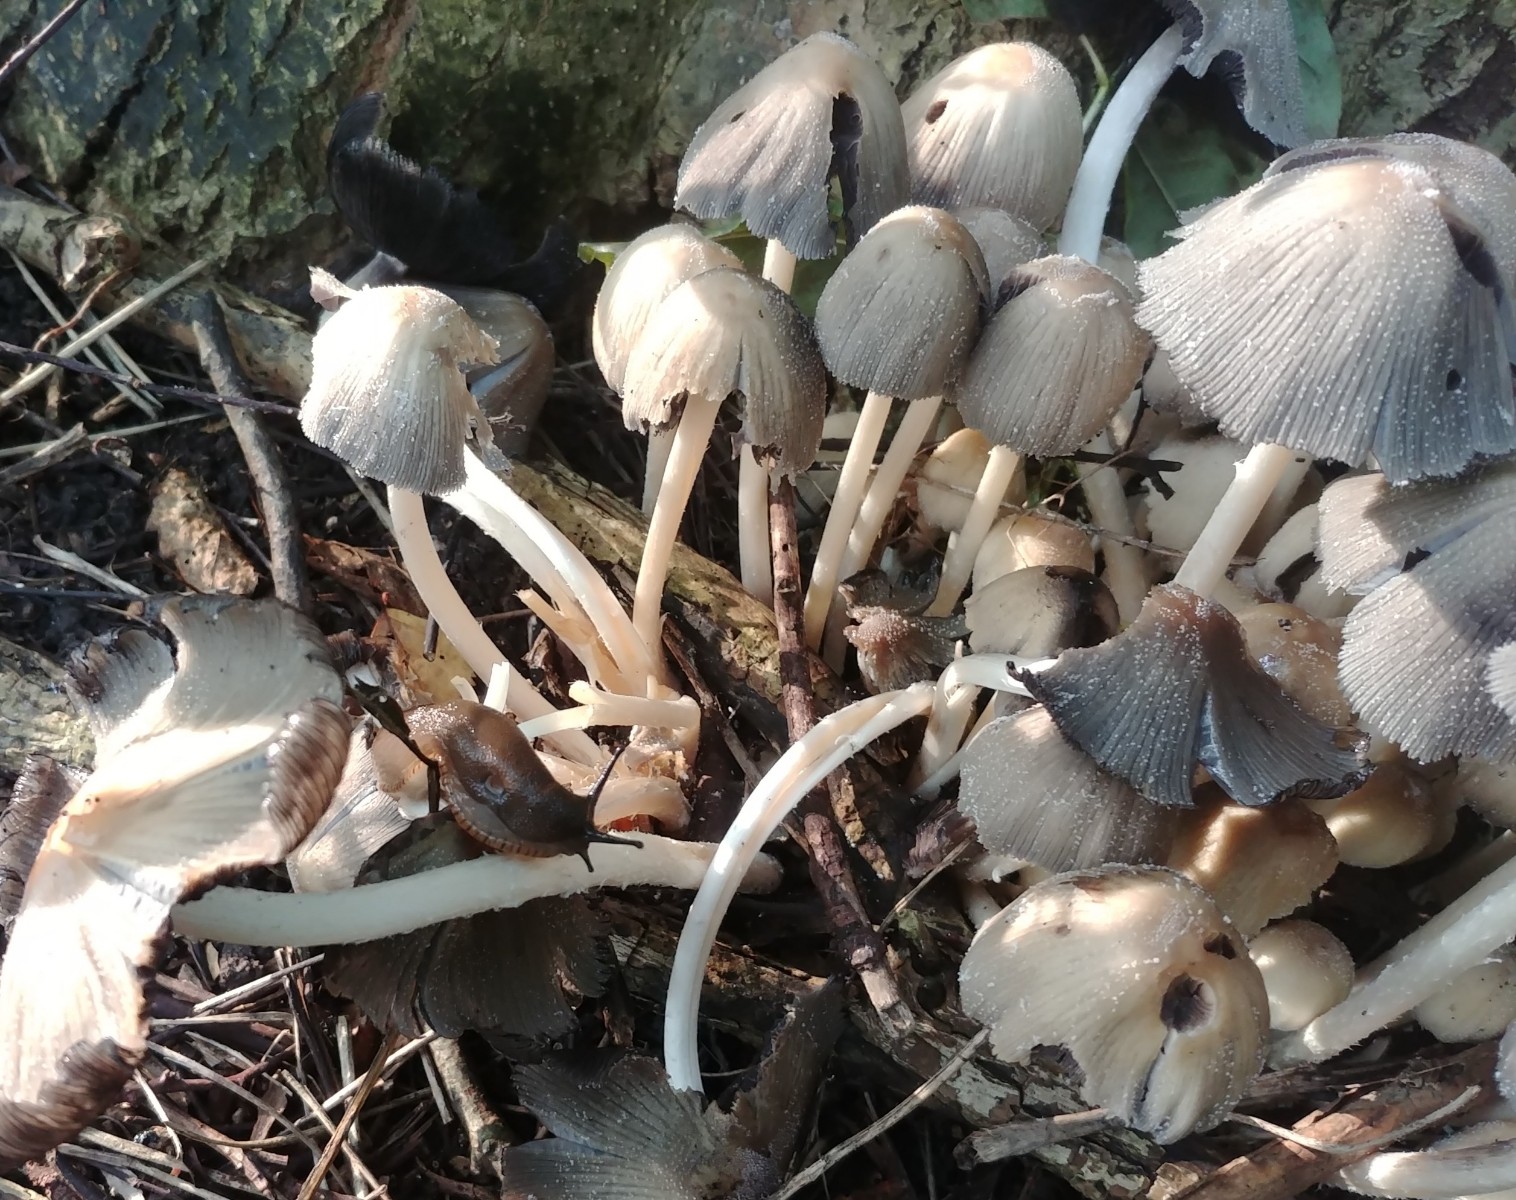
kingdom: Fungi
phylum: Basidiomycota
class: Agaricomycetes
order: Agaricales
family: Psathyrellaceae
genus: Coprinellus
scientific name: Coprinellus micaceus
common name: glimmer-blækhat
